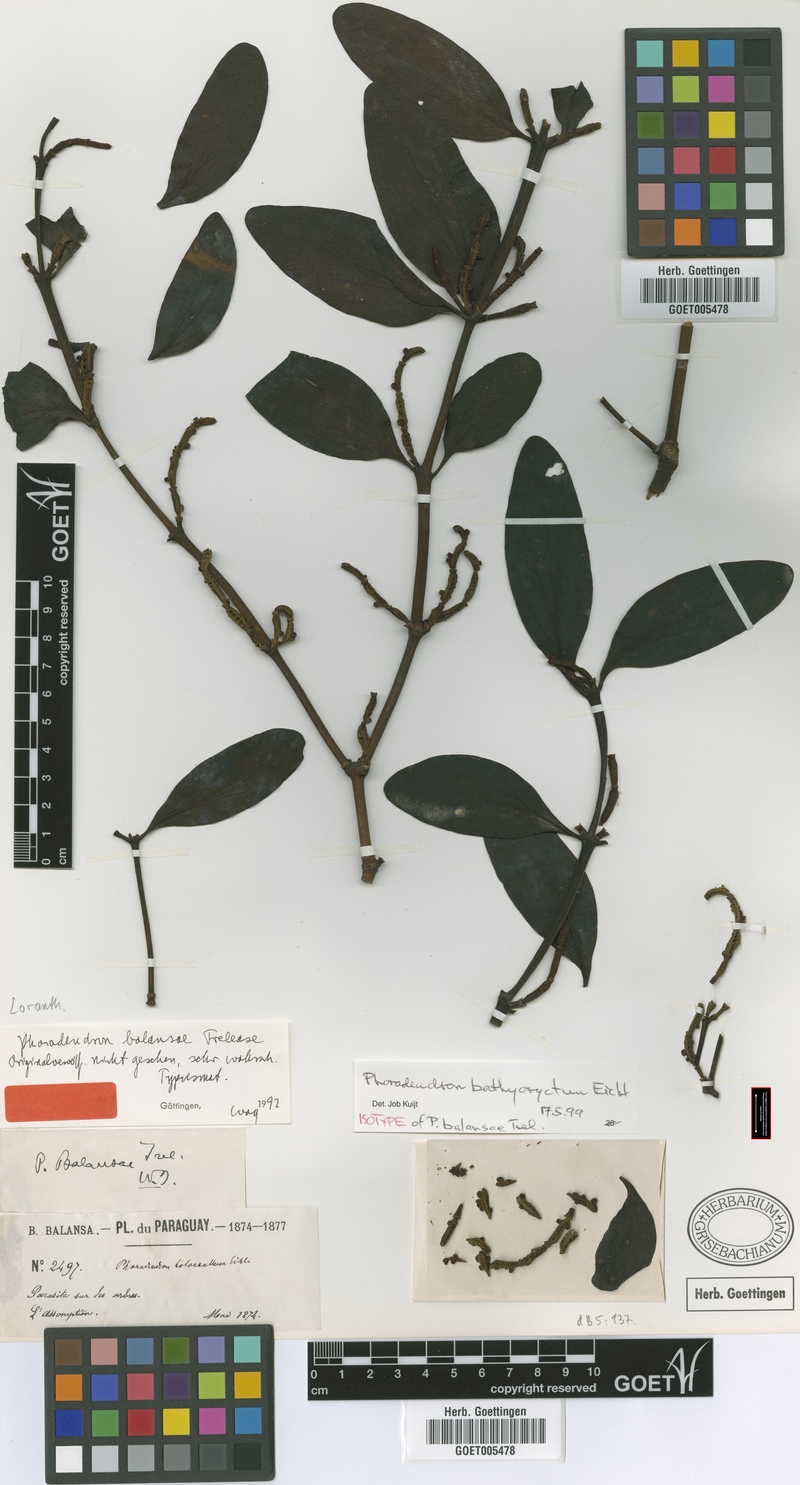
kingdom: Plantae
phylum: Tracheophyta
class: Magnoliopsida
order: Santalales
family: Viscaceae
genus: Phoradendron
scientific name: Phoradendron bathyoryctum
